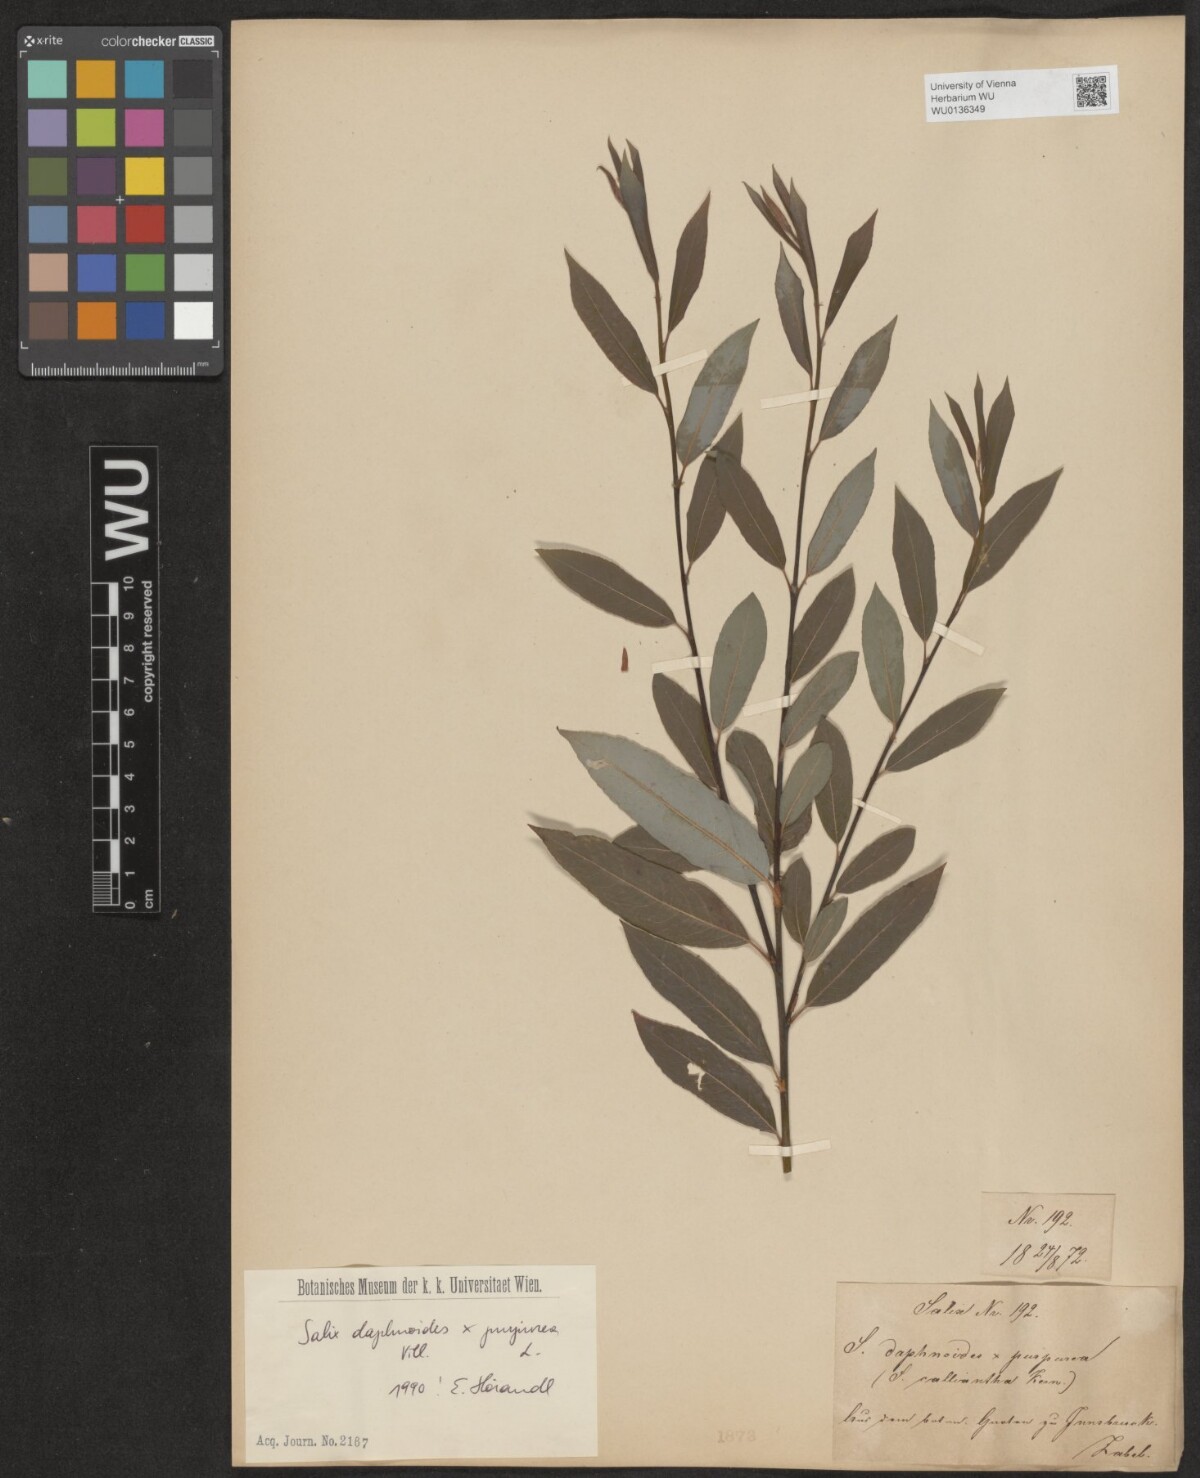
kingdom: Plantae
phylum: Tracheophyta
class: Magnoliopsida
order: Malpighiales
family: Salicaceae
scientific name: Salicaceae
